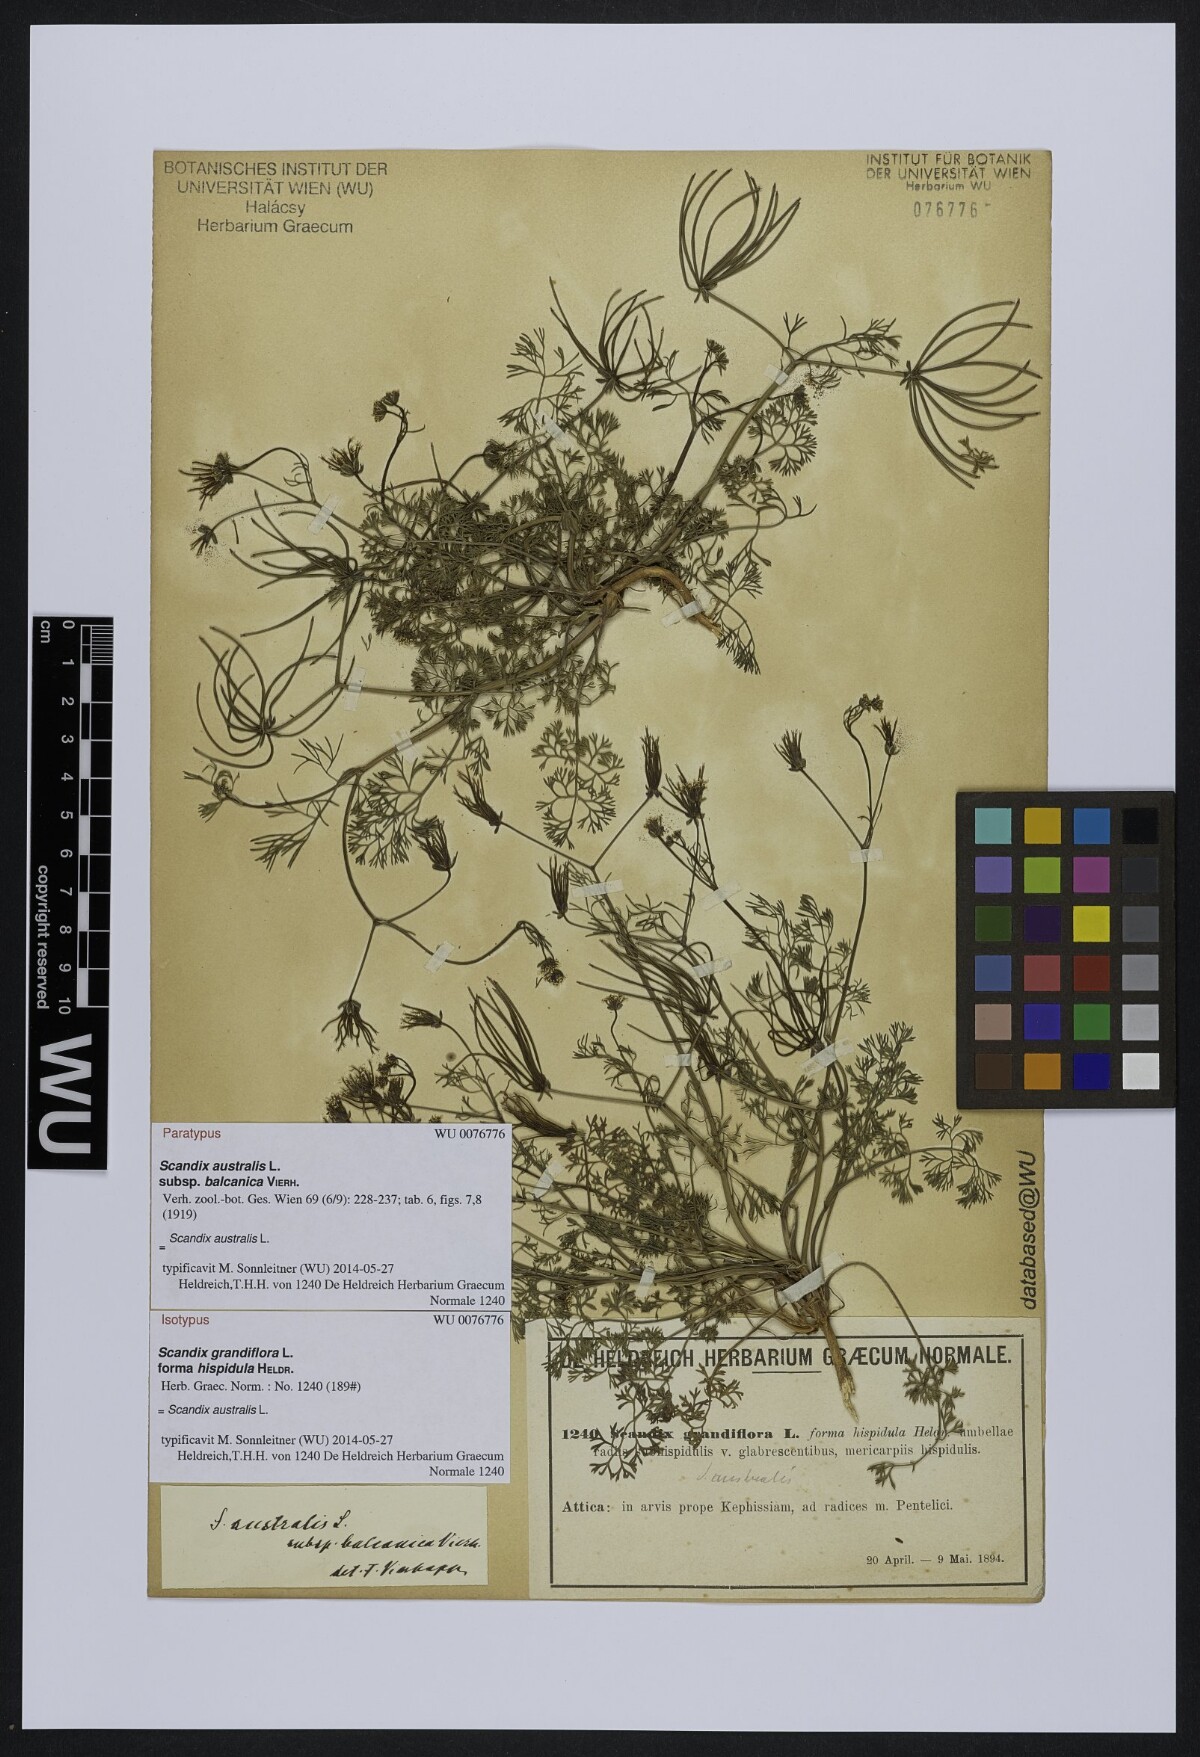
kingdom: Plantae
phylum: Tracheophyta
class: Magnoliopsida
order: Apiales
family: Apiaceae
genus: Scandix
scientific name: Scandix australis
